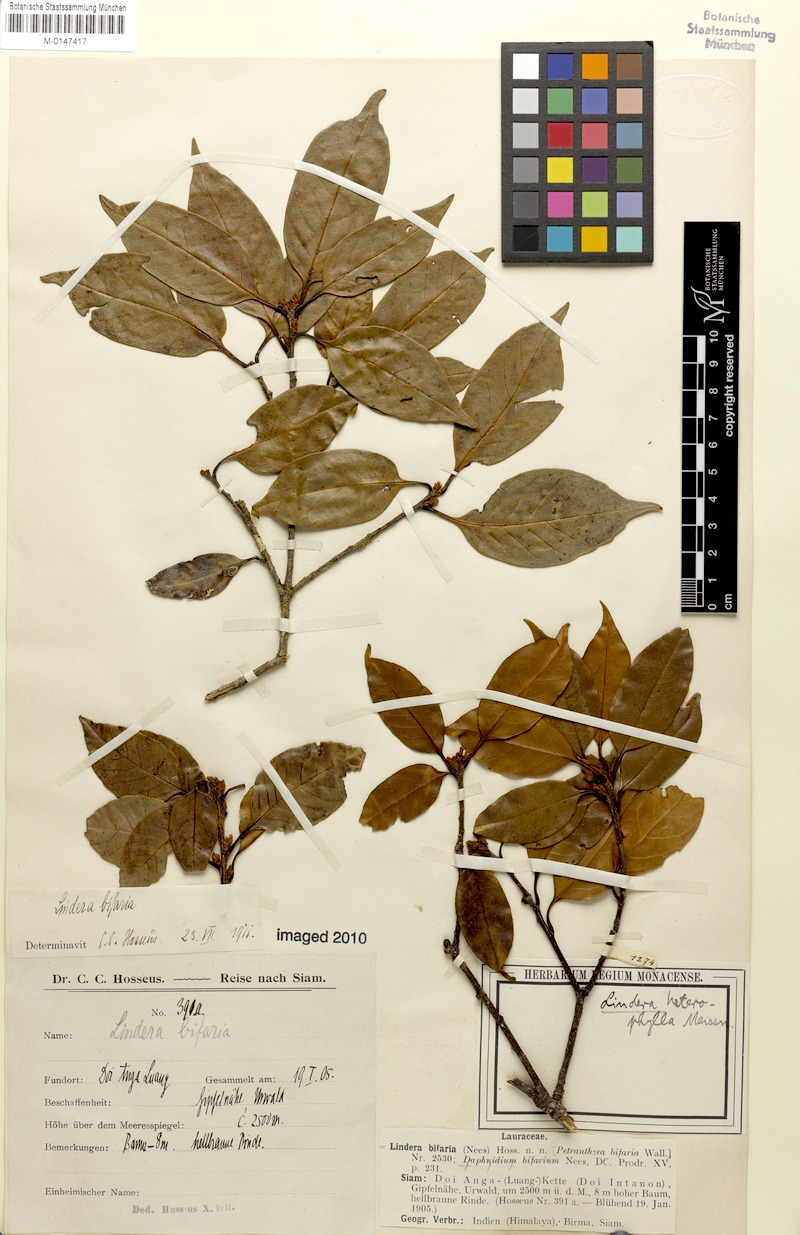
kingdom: Plantae
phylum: Tracheophyta
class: Magnoliopsida
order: Laurales
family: Lauraceae
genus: Lindera
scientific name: Lindera nacusua
